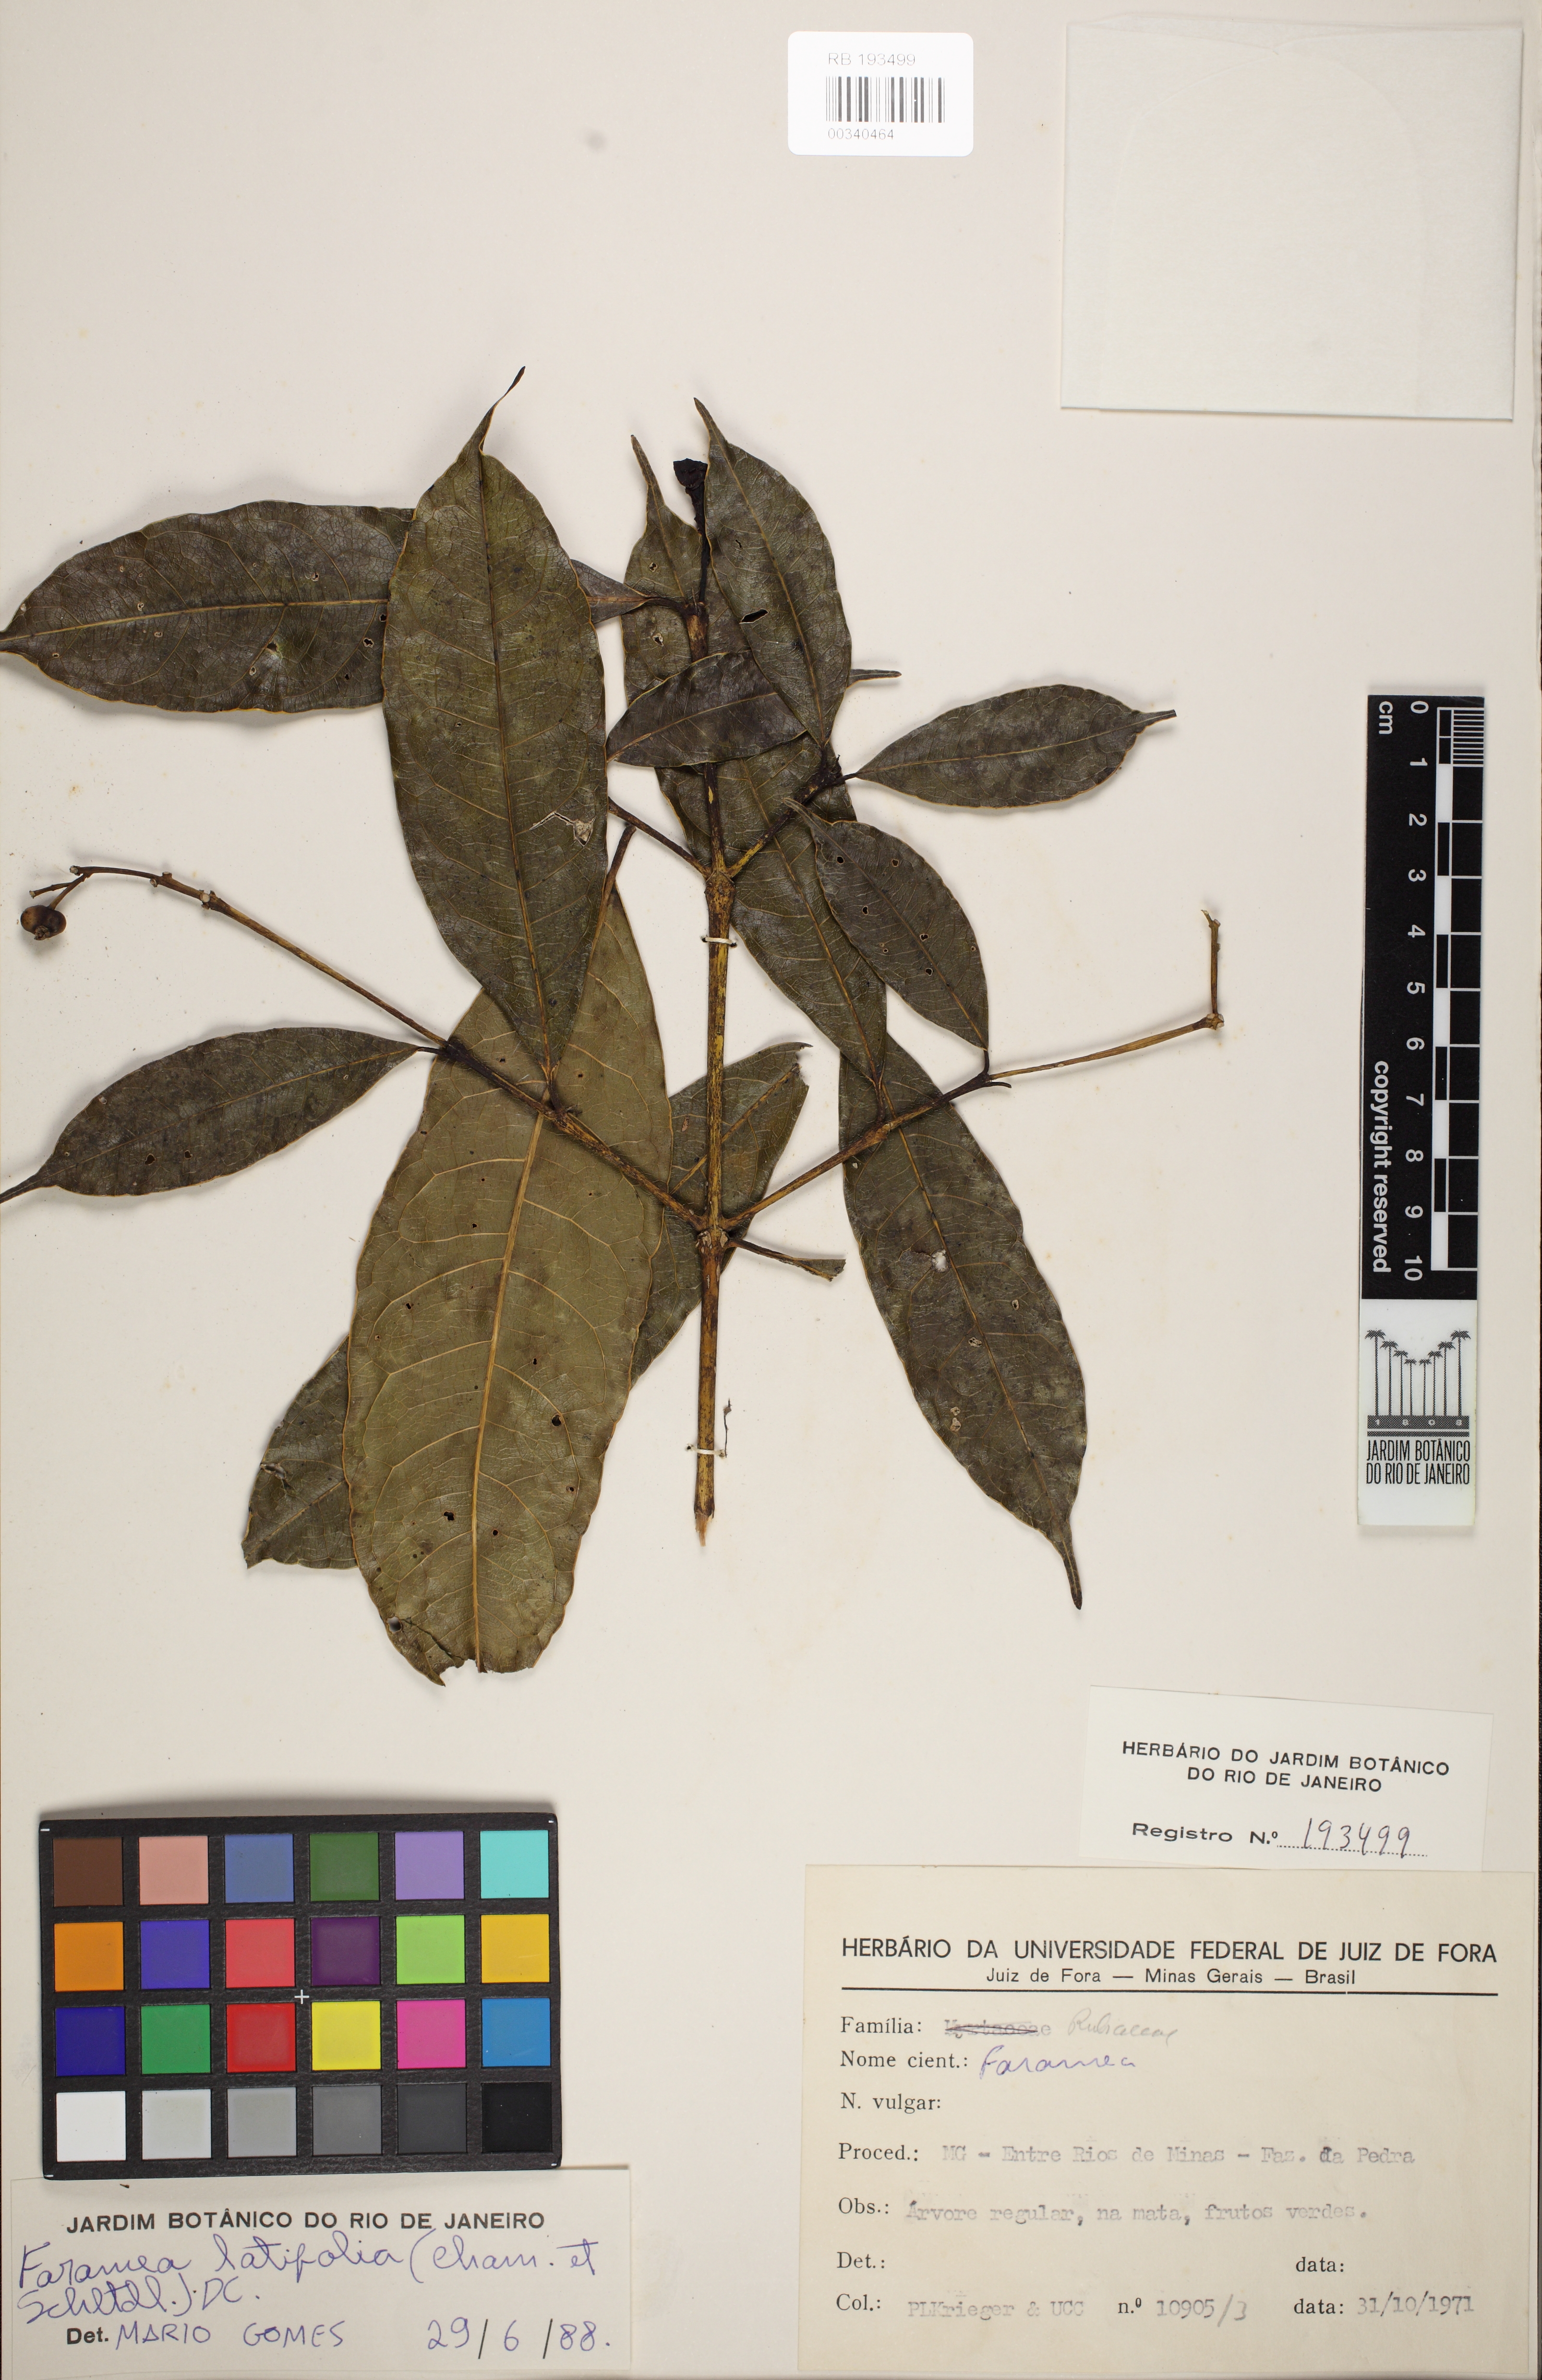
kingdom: Plantae
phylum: Tracheophyta
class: Magnoliopsida
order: Gentianales
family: Rubiaceae
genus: Faramea
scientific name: Faramea latifolia
